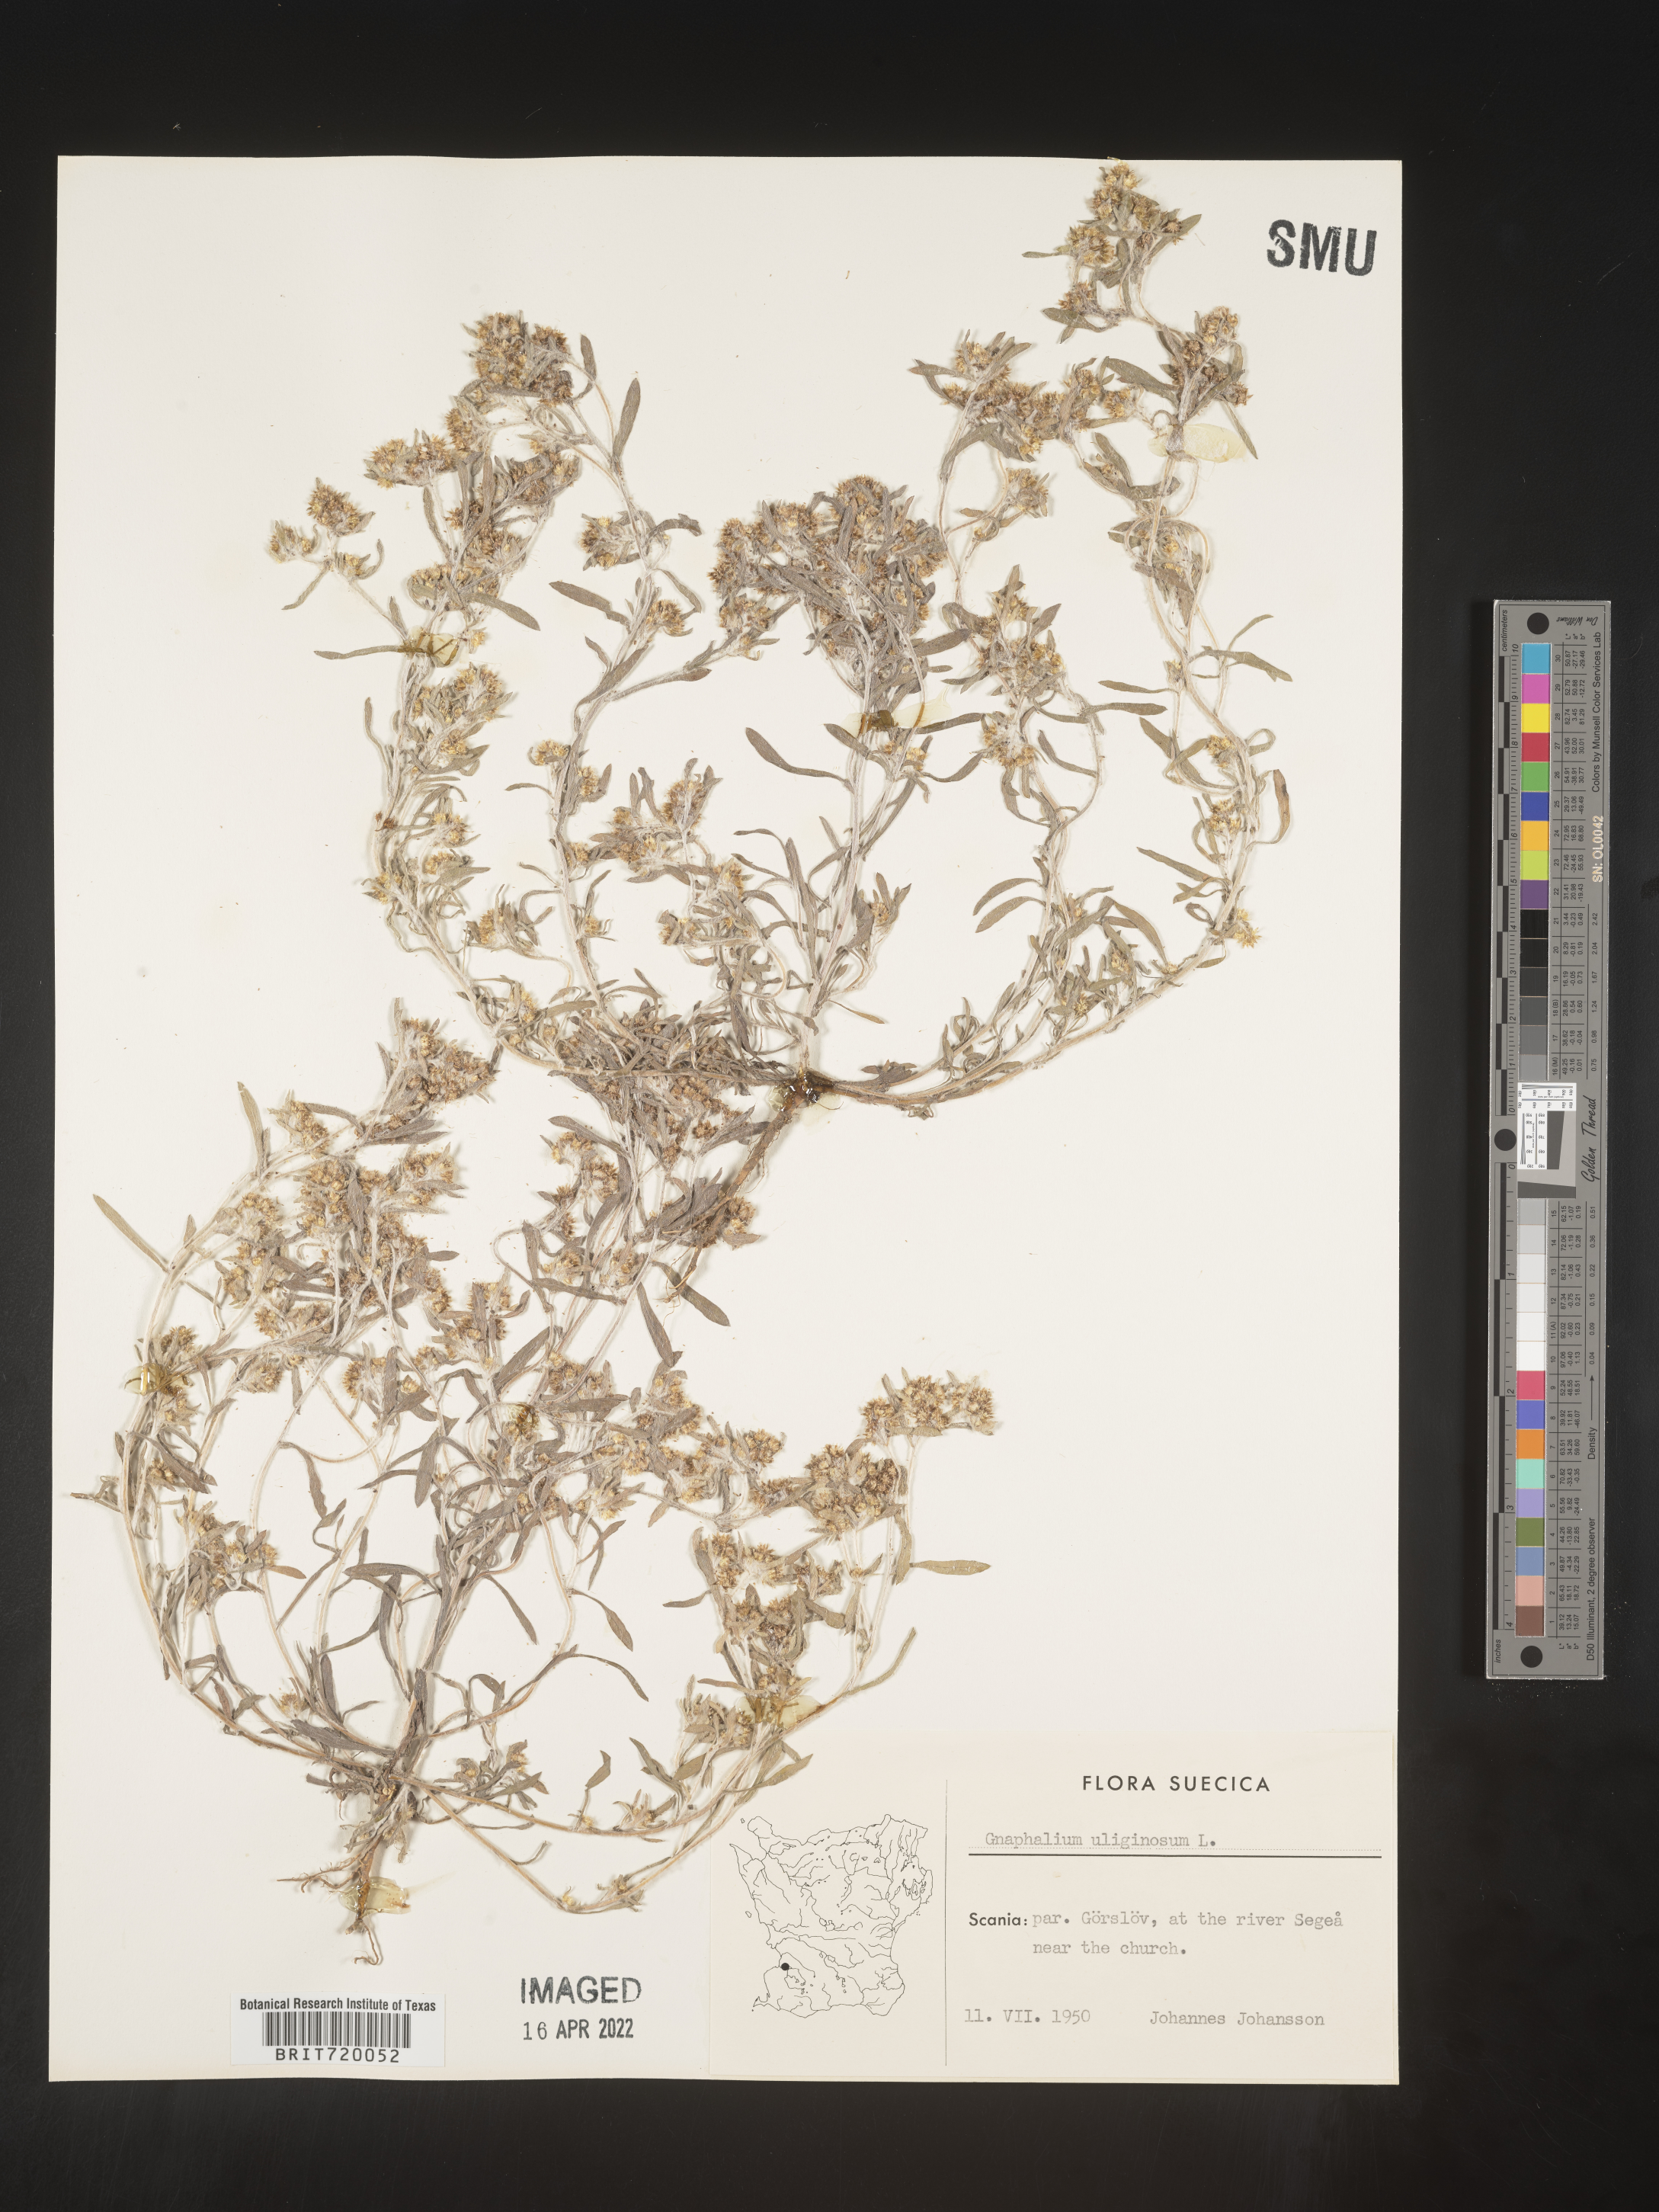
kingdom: Plantae
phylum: Tracheophyta
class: Magnoliopsida
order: Asterales
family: Asteraceae
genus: Gnaphalium
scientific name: Gnaphalium
